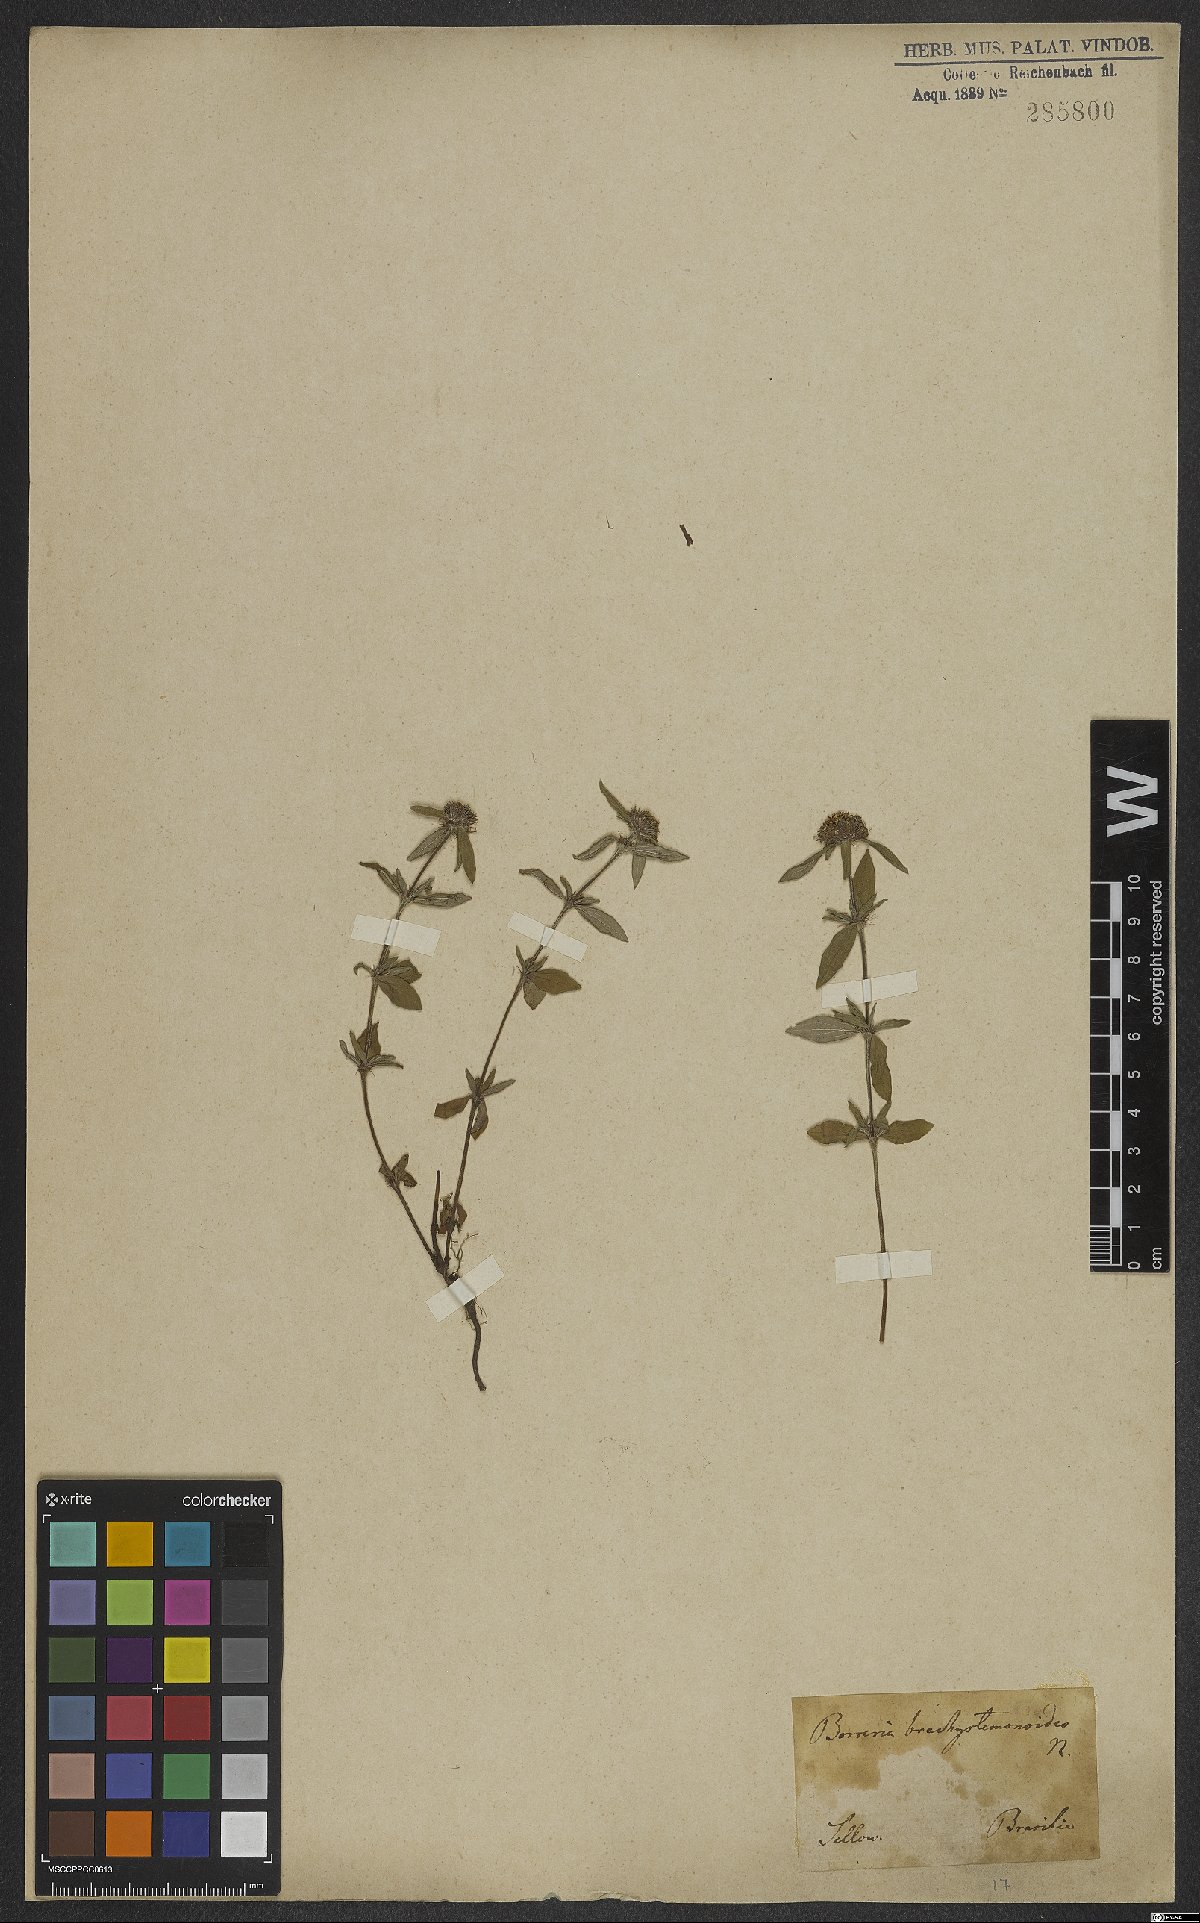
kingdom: Plantae
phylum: Tracheophyta
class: Magnoliopsida
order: Gentianales
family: Rubiaceae
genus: Spermacoce
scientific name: Spermacoce brachystemonoides
